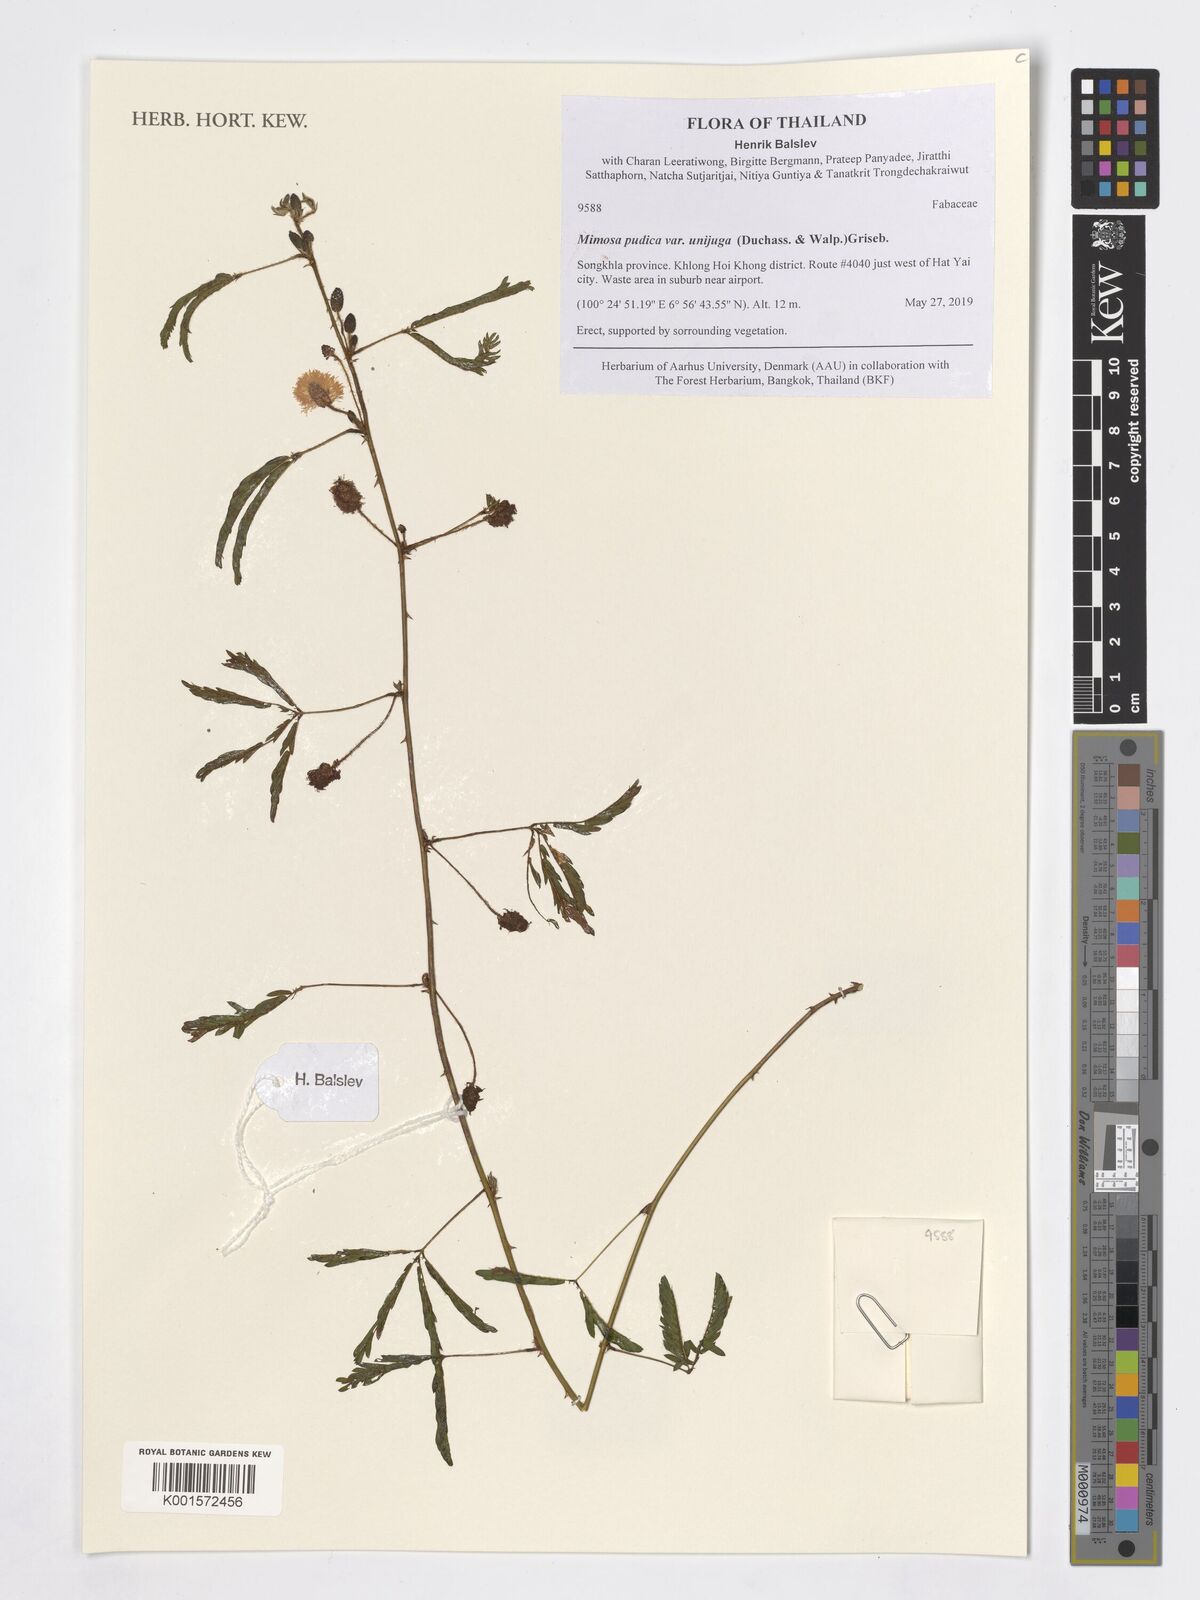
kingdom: Plantae
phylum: Tracheophyta
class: Magnoliopsida
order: Fabales
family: Fabaceae
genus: Mimosa
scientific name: Mimosa pudica
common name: Sensitive plant
